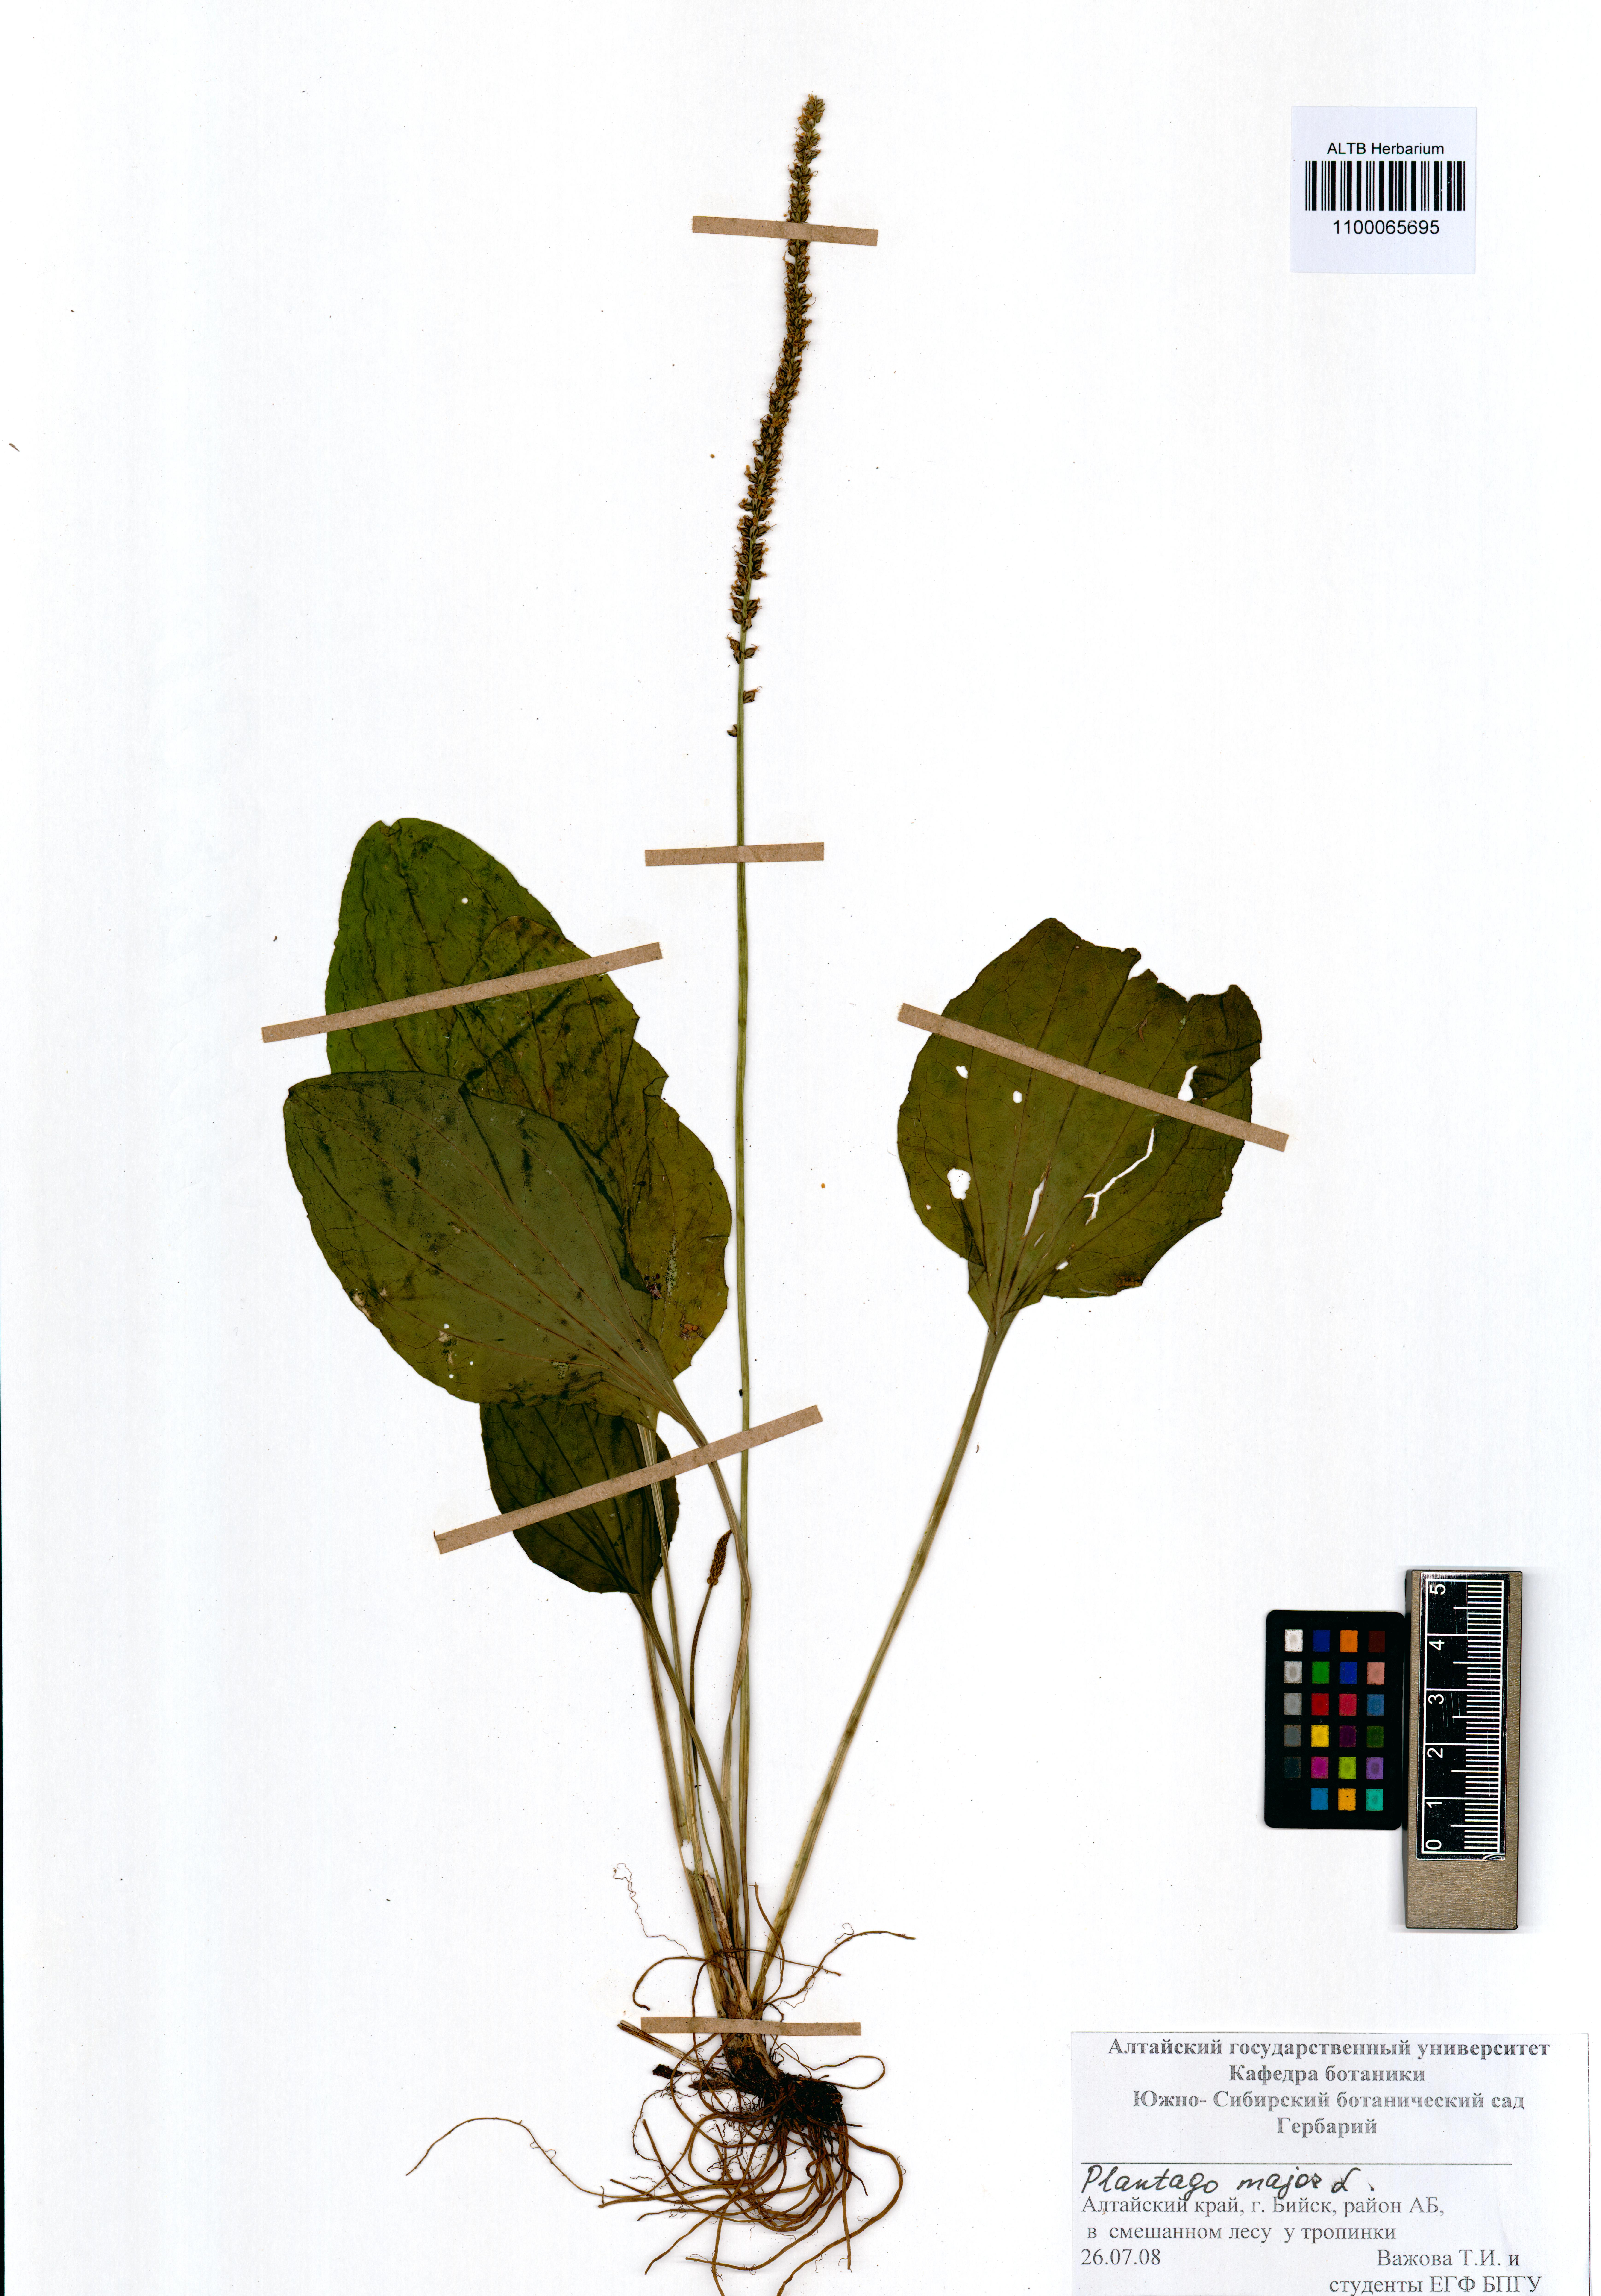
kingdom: Plantae
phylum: Tracheophyta
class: Magnoliopsida
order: Lamiales
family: Plantaginaceae
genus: Plantago
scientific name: Plantago major
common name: Common plantain
